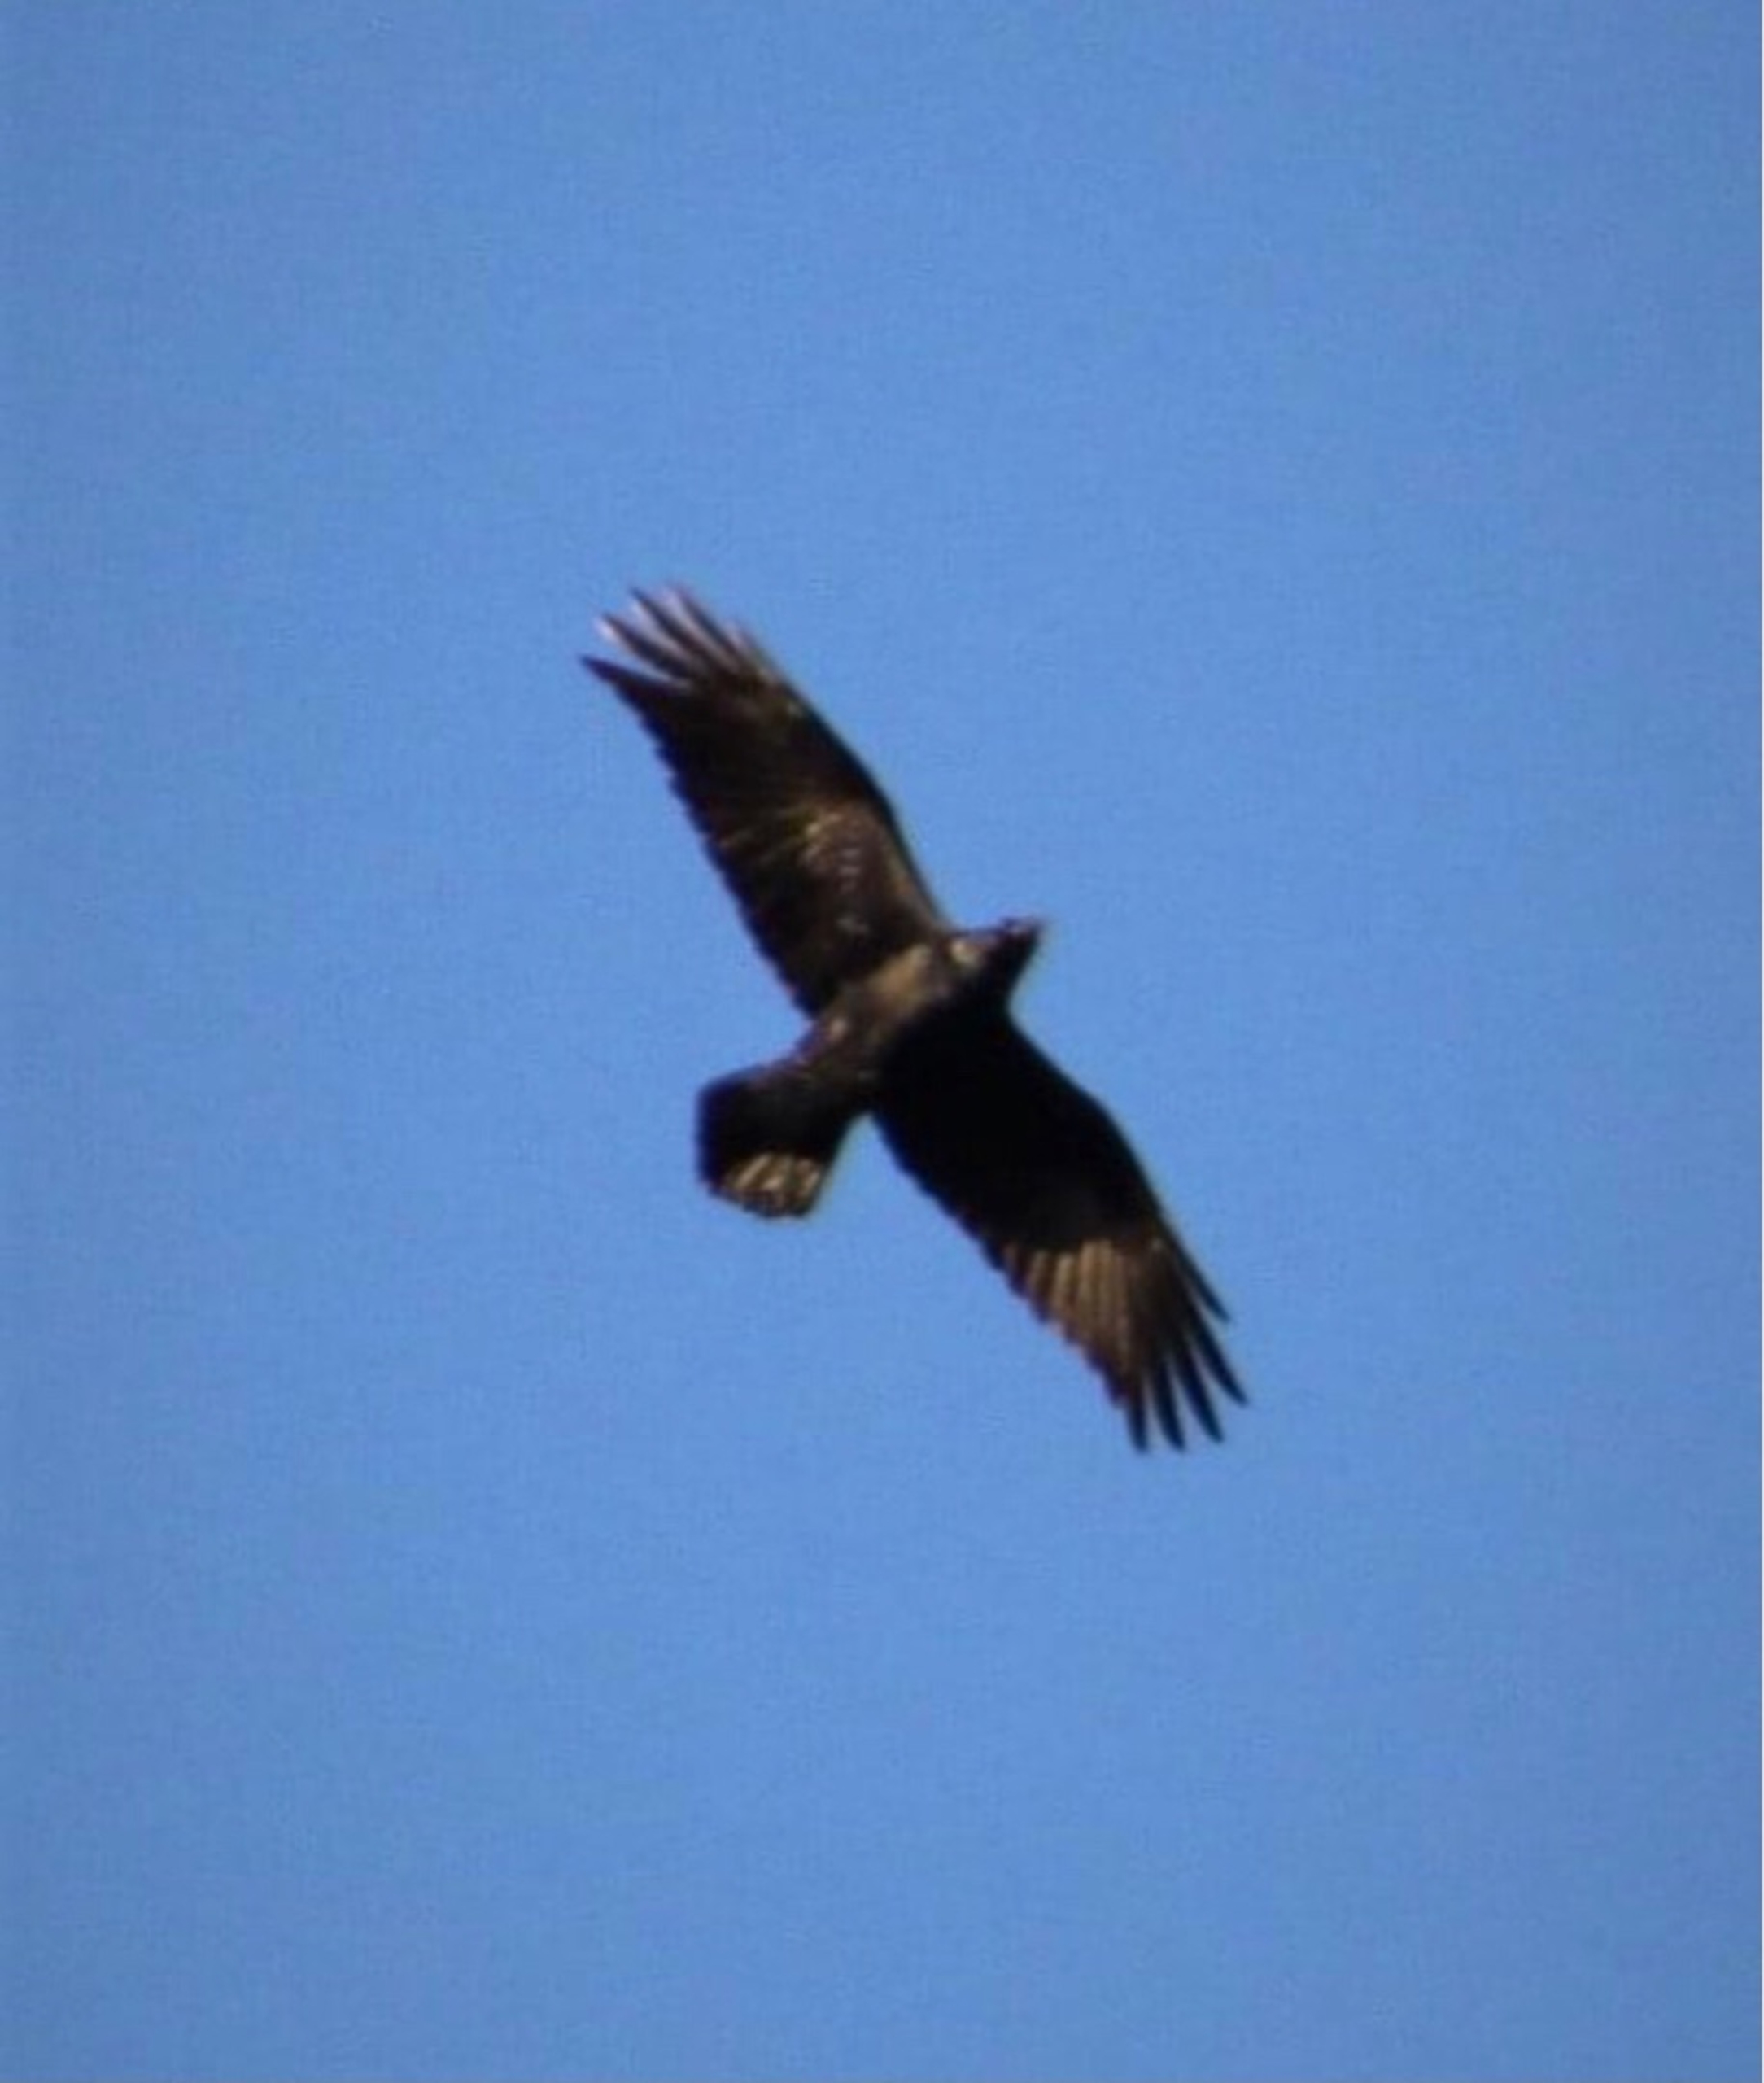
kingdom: Animalia
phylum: Chordata
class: Aves
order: Passeriformes
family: Corvidae
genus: Corvus
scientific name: Corvus corax
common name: Ravn
